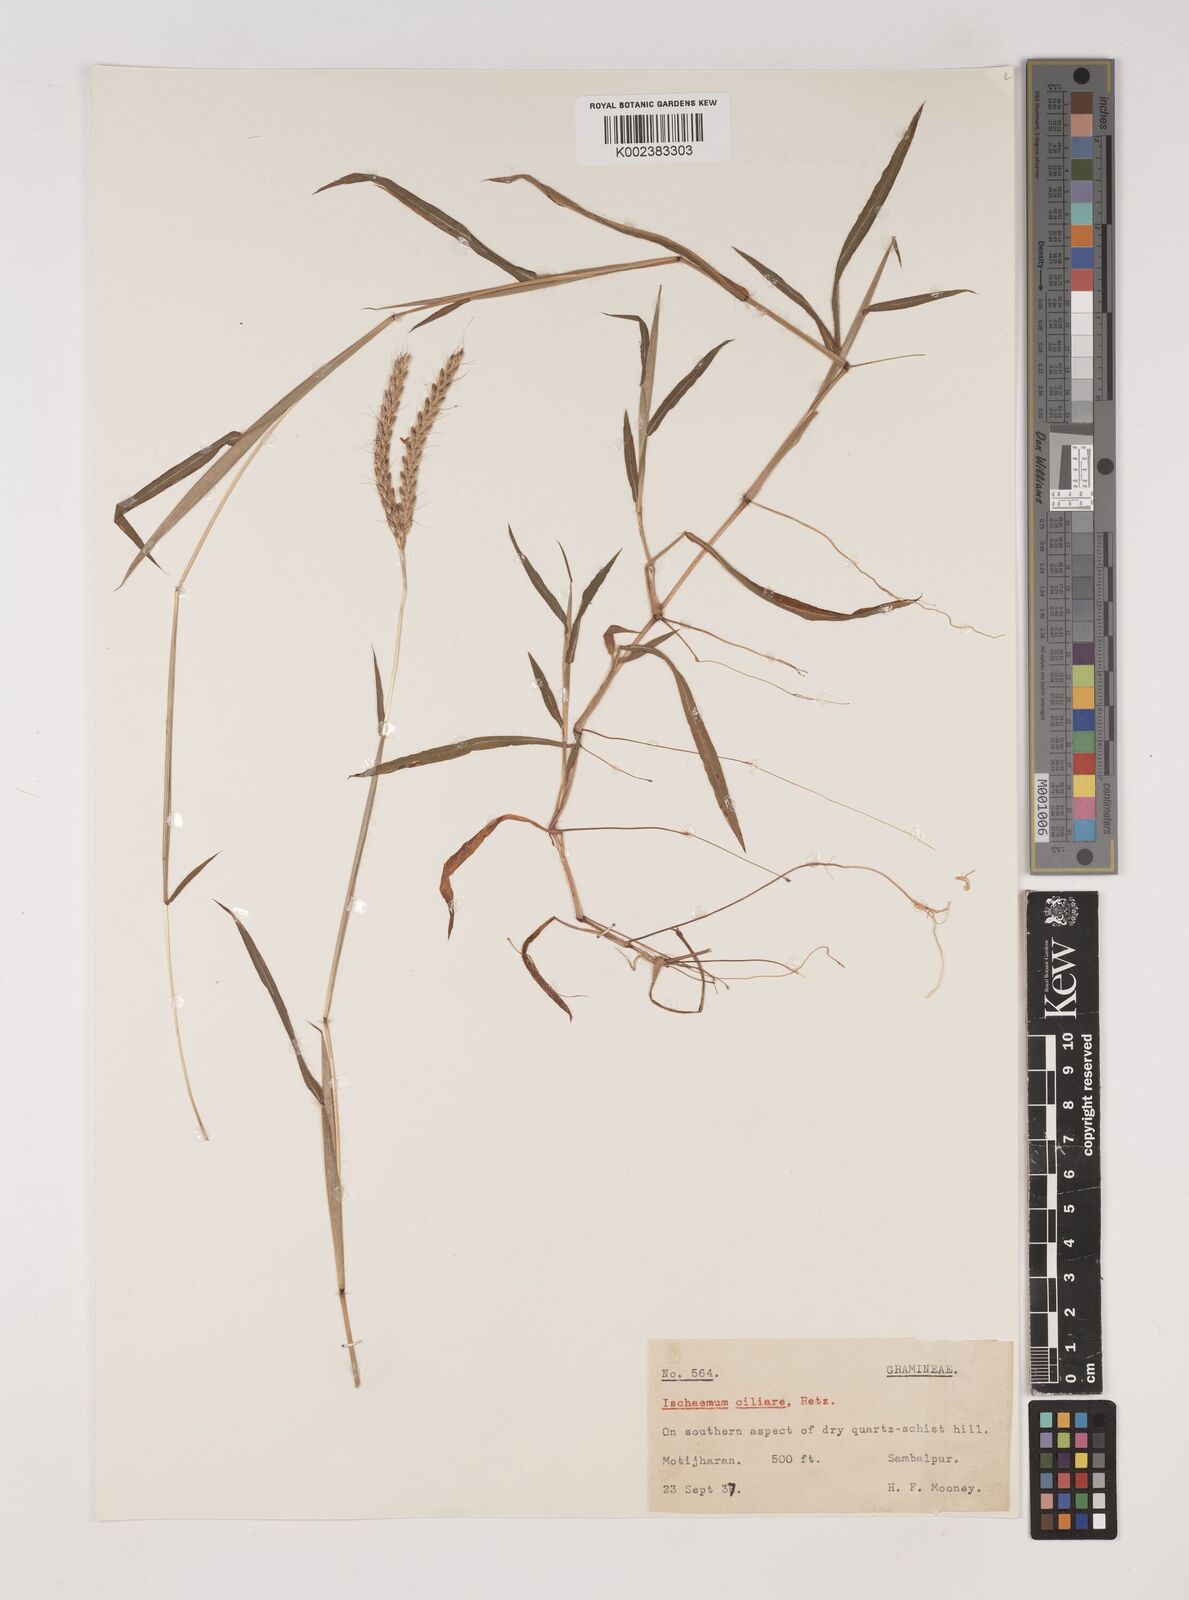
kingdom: Plantae
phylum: Tracheophyta
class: Liliopsida
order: Poales
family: Poaceae
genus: Polytrias
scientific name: Polytrias indica
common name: Indian murainagrass
